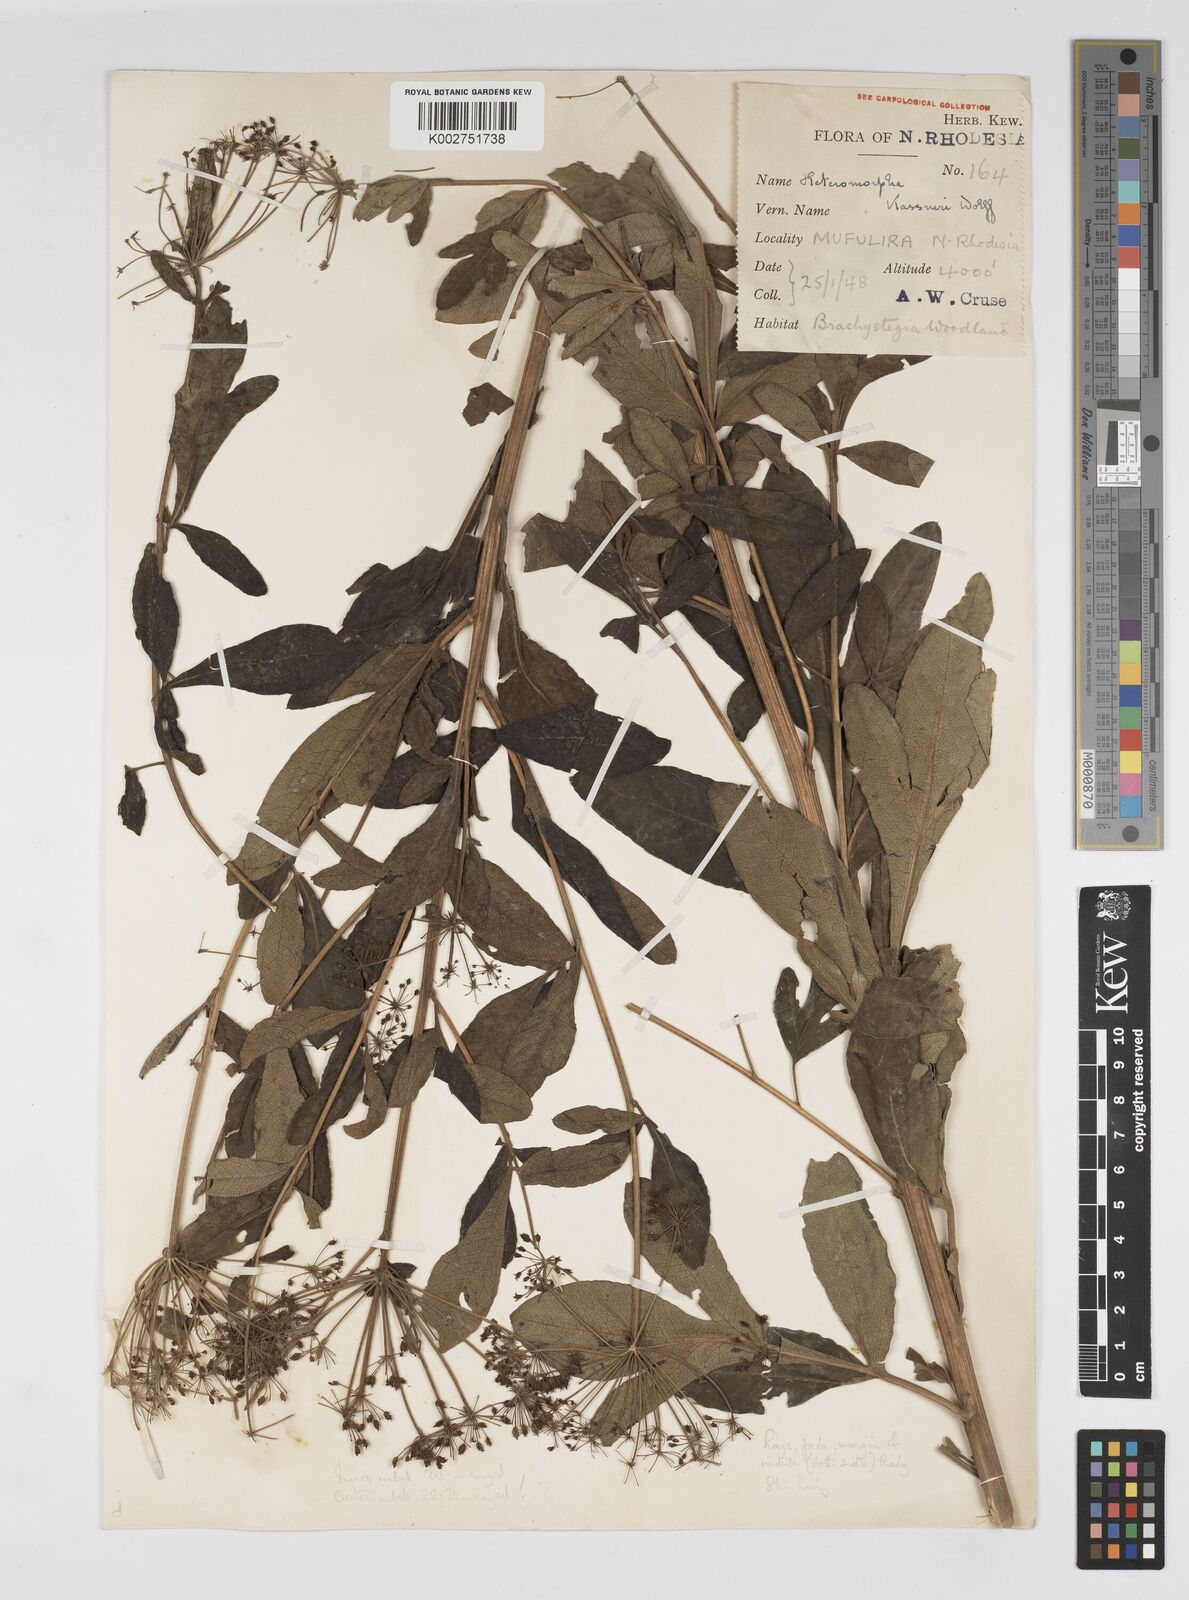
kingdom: Plantae
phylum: Tracheophyta
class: Magnoliopsida
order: Apiales
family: Apiaceae
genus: Heteromorpha
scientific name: Heteromorpha involucrata
